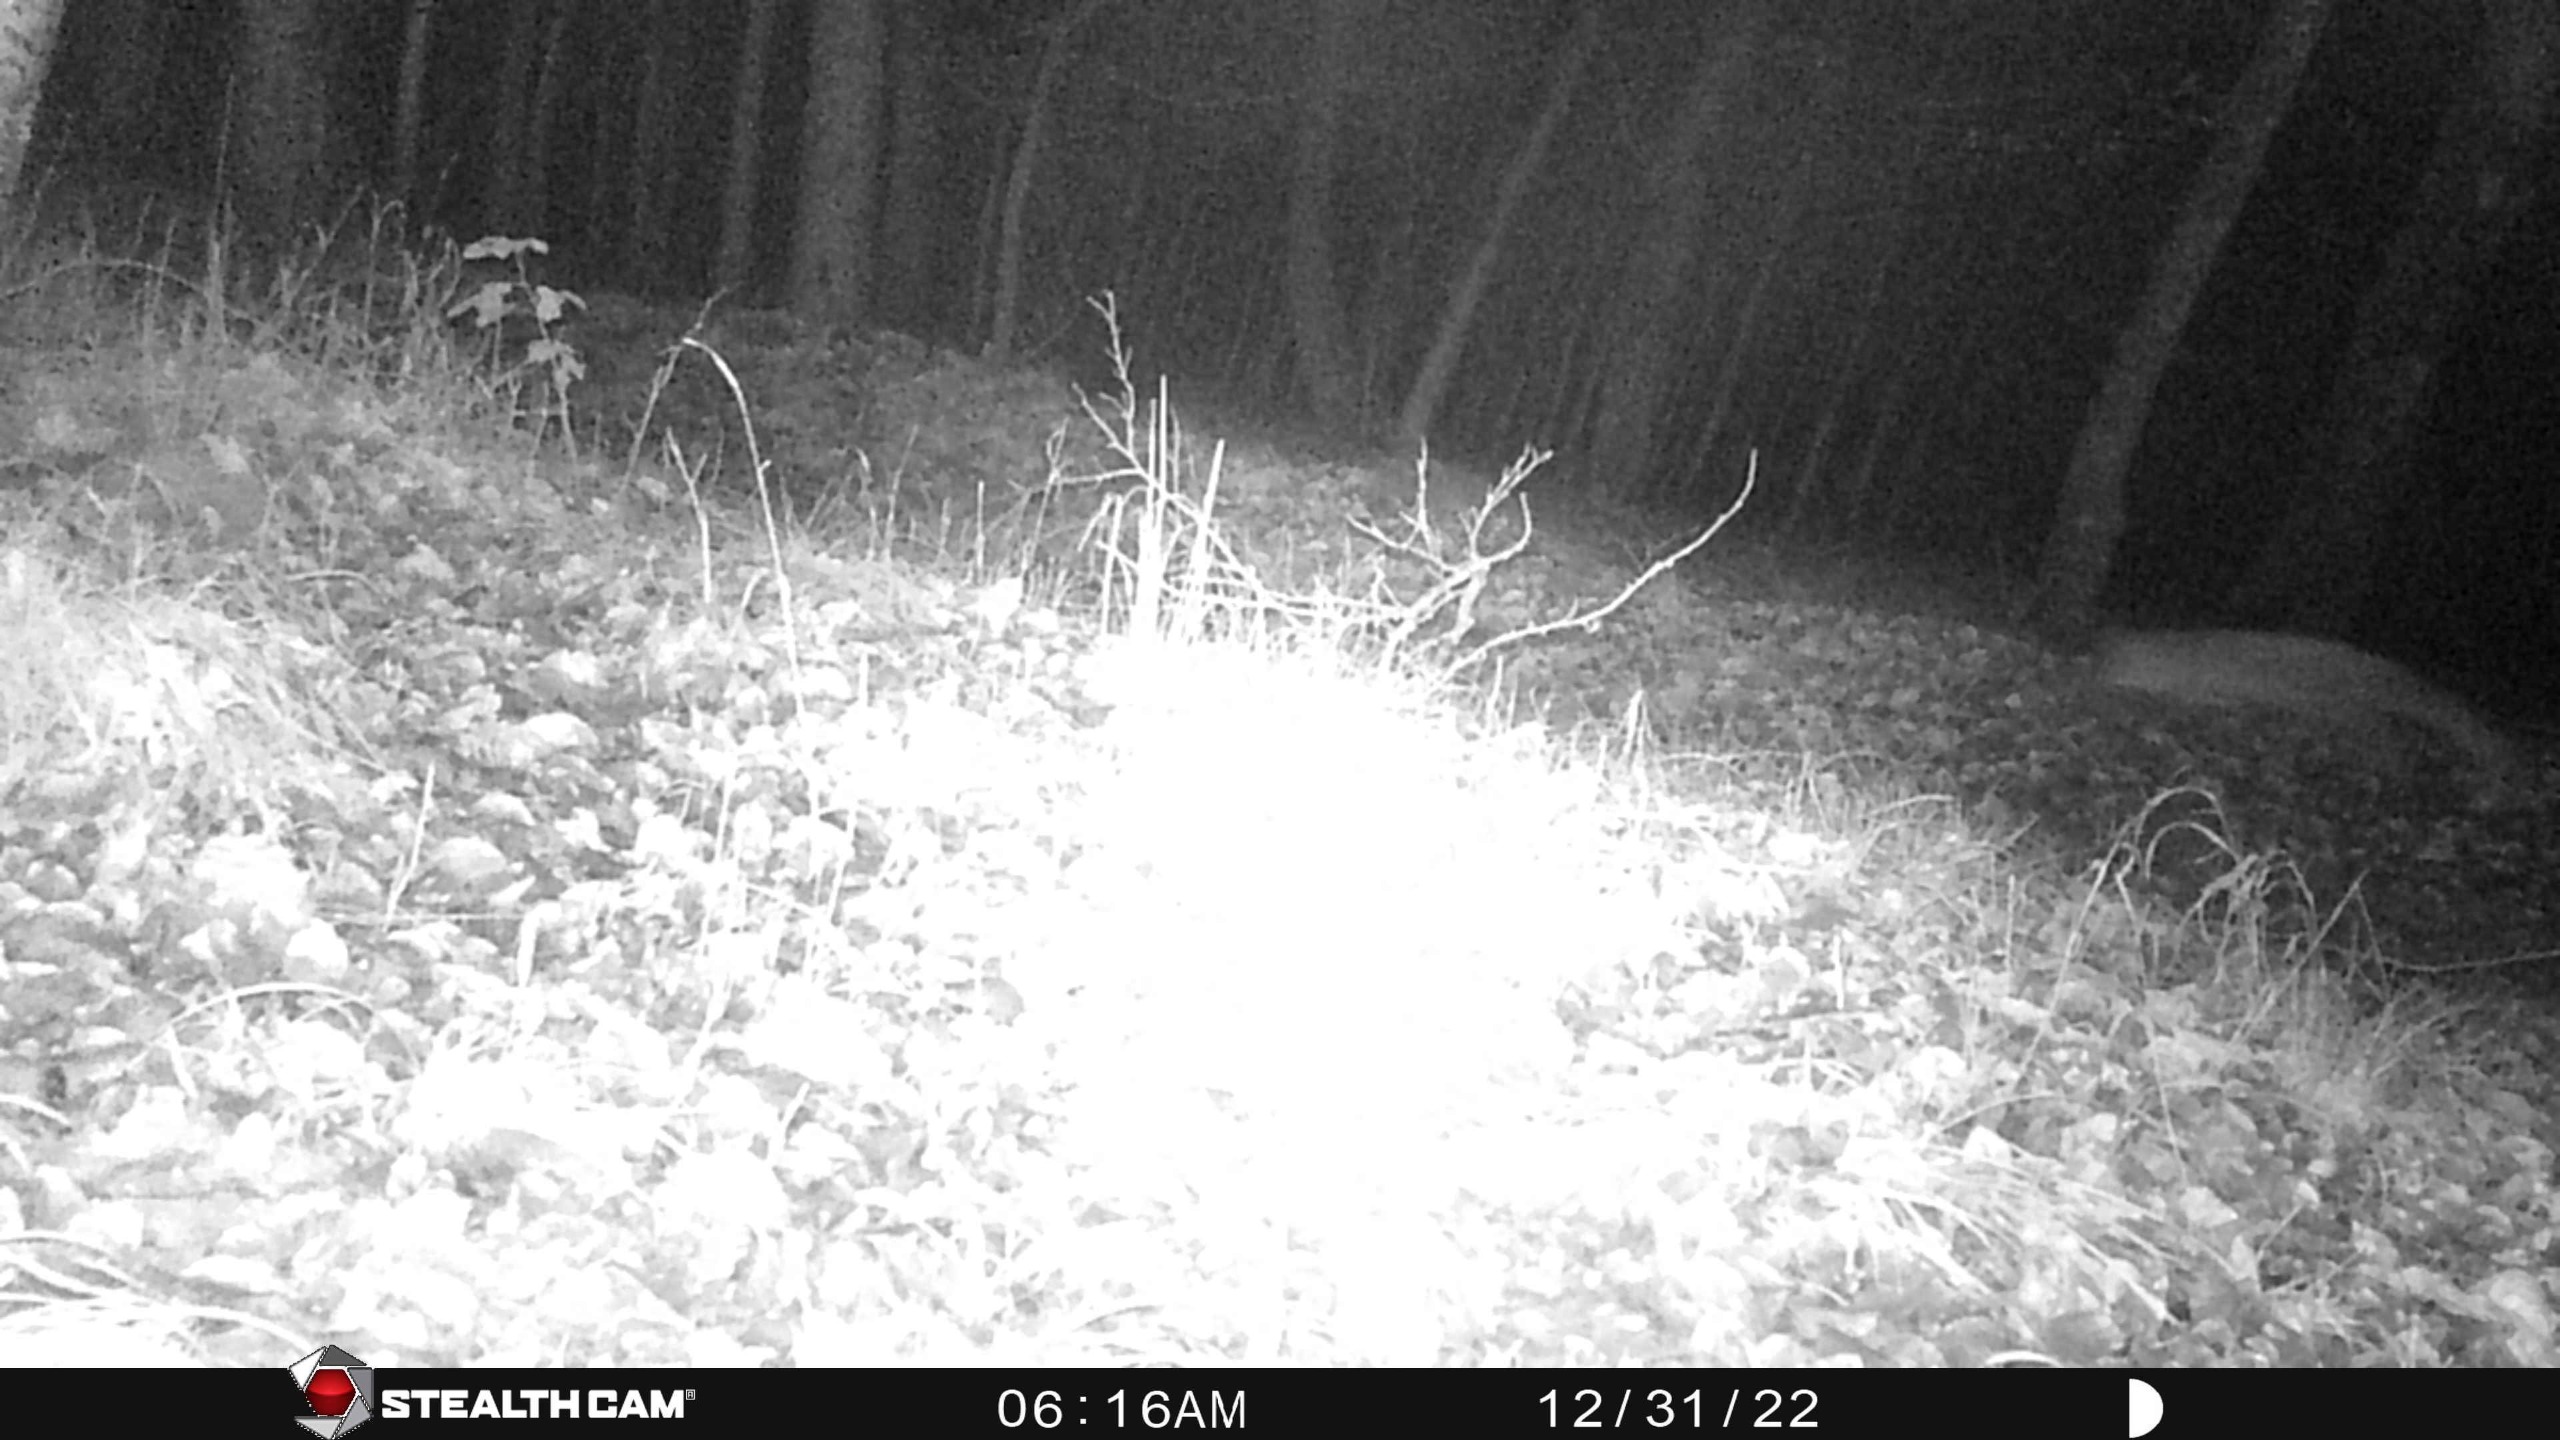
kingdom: Animalia
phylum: Chordata
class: Mammalia
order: Carnivora
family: Canidae
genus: Vulpes
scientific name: Vulpes vulpes
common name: Ræv
